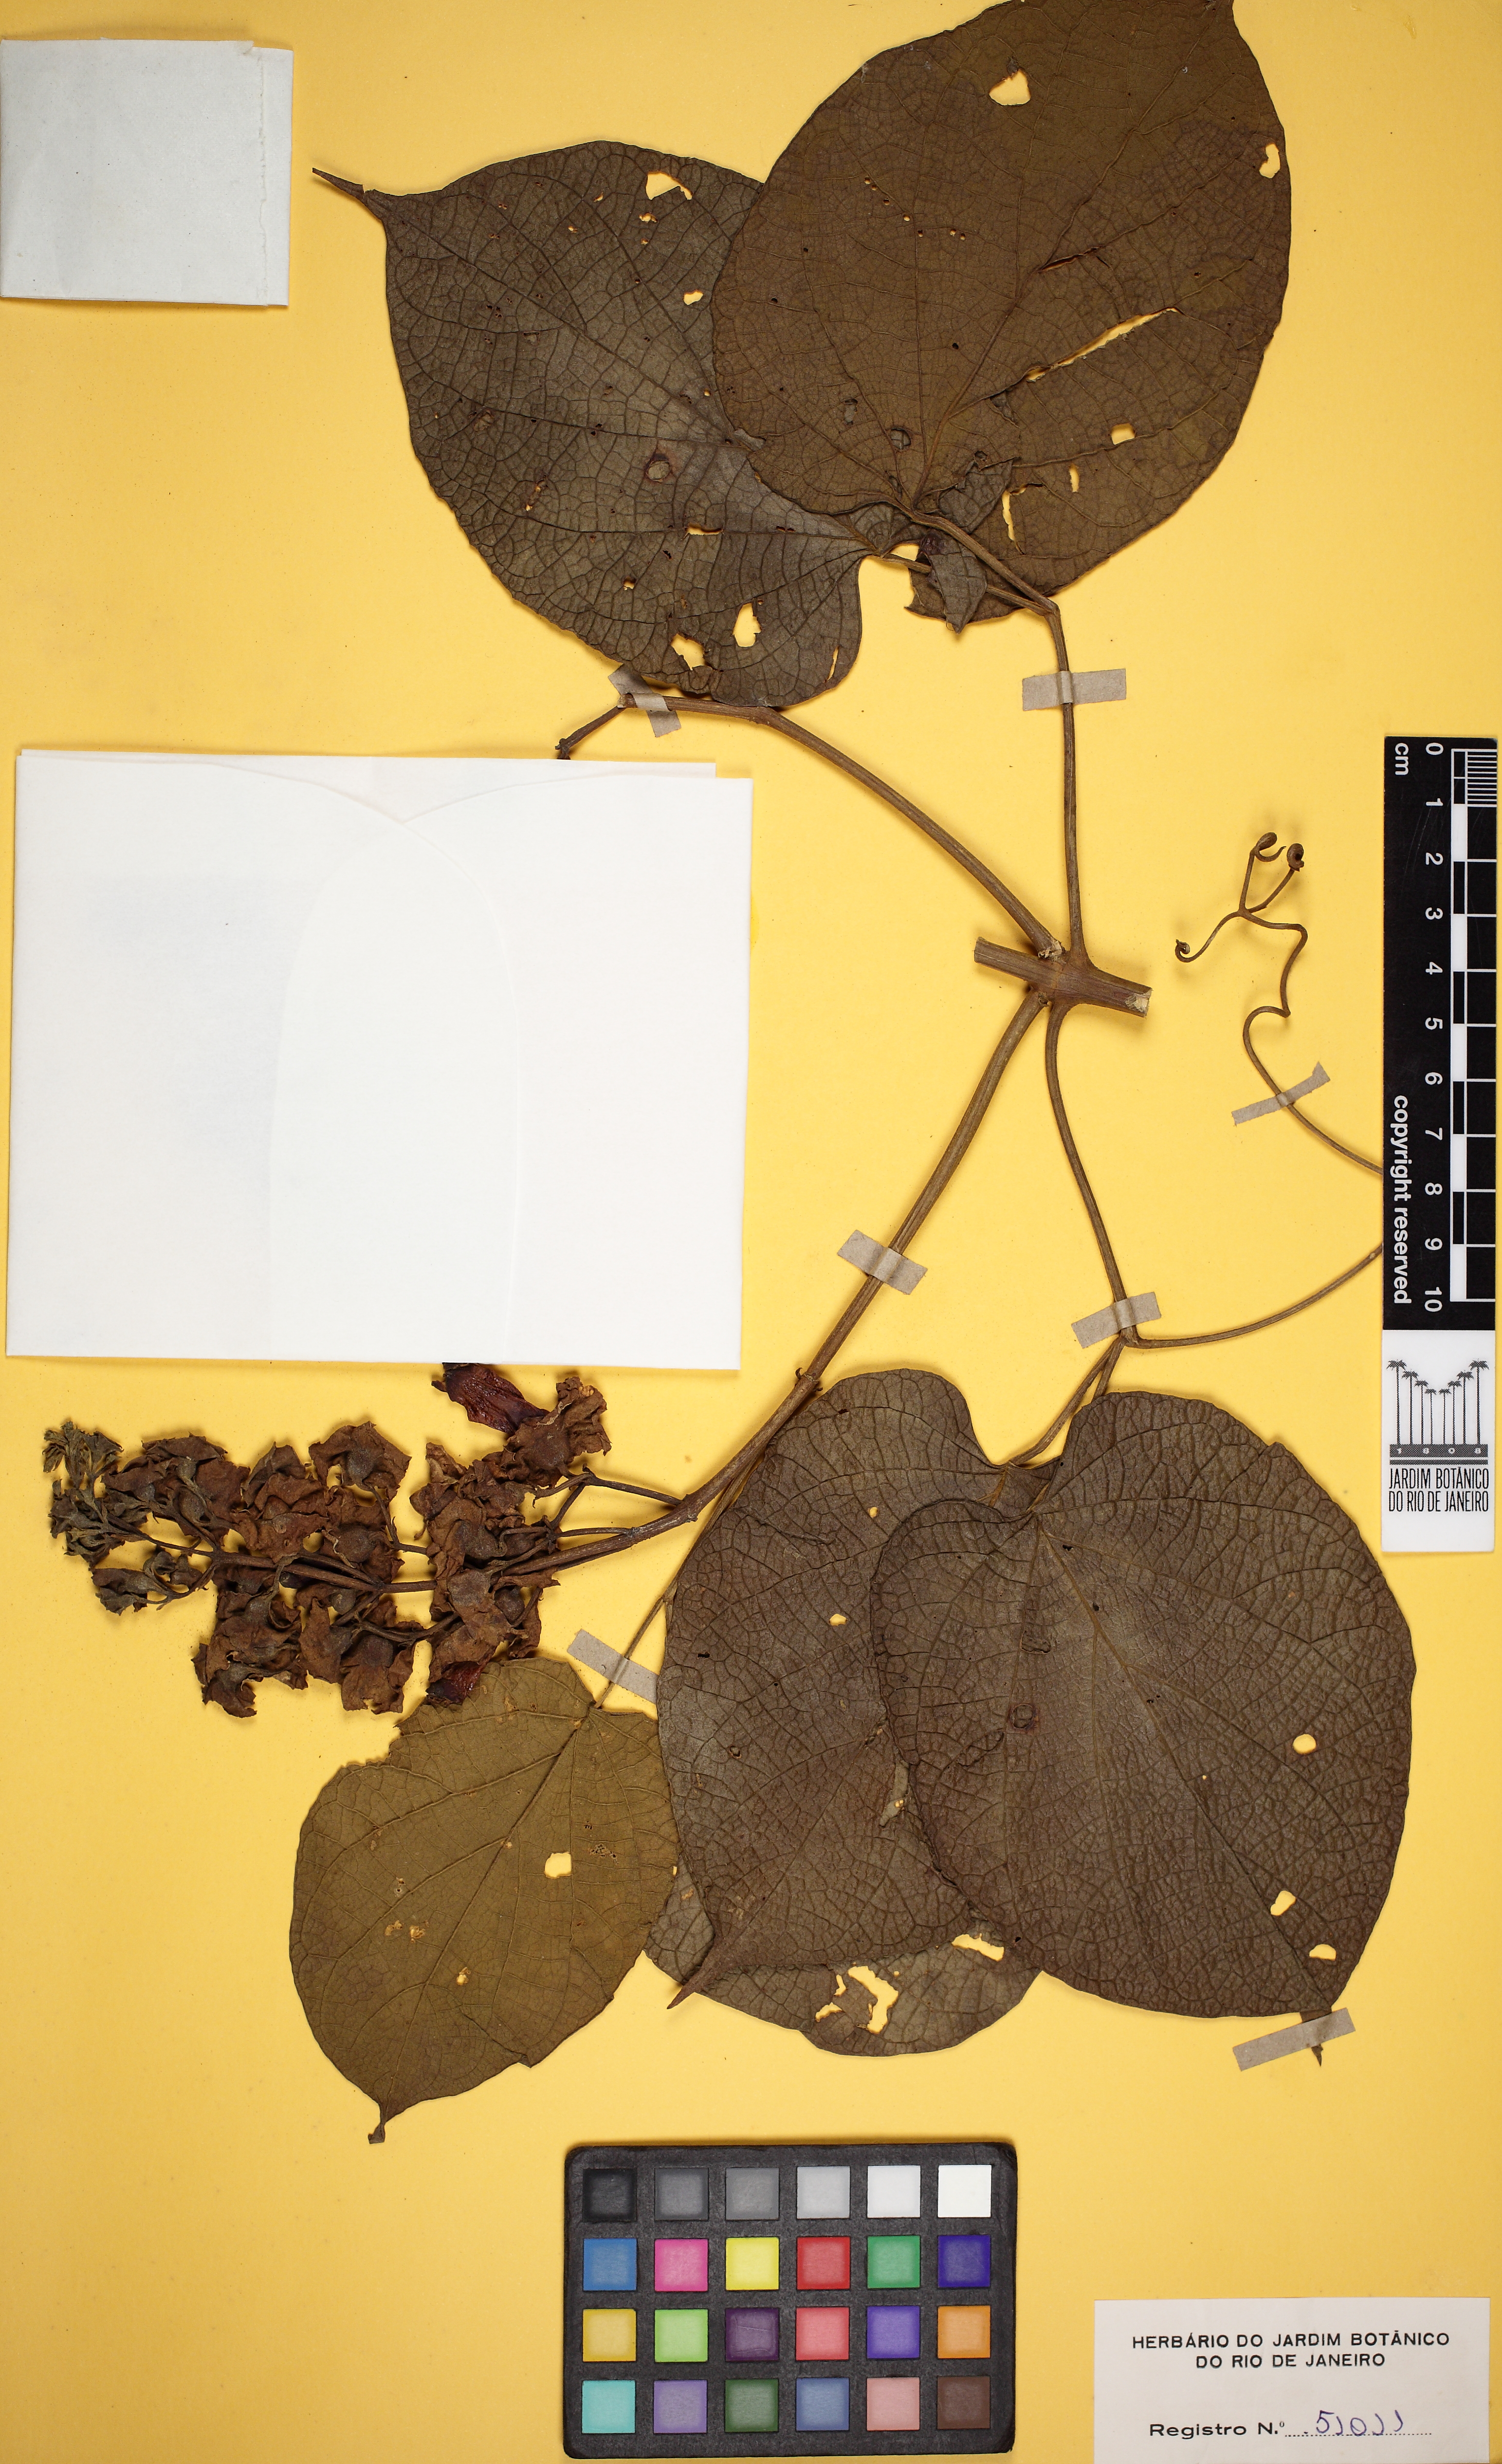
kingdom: Plantae
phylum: Tracheophyta
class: Magnoliopsida
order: Lamiales
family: Bignoniaceae
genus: Amphilophium
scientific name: Amphilophium paniculatum
